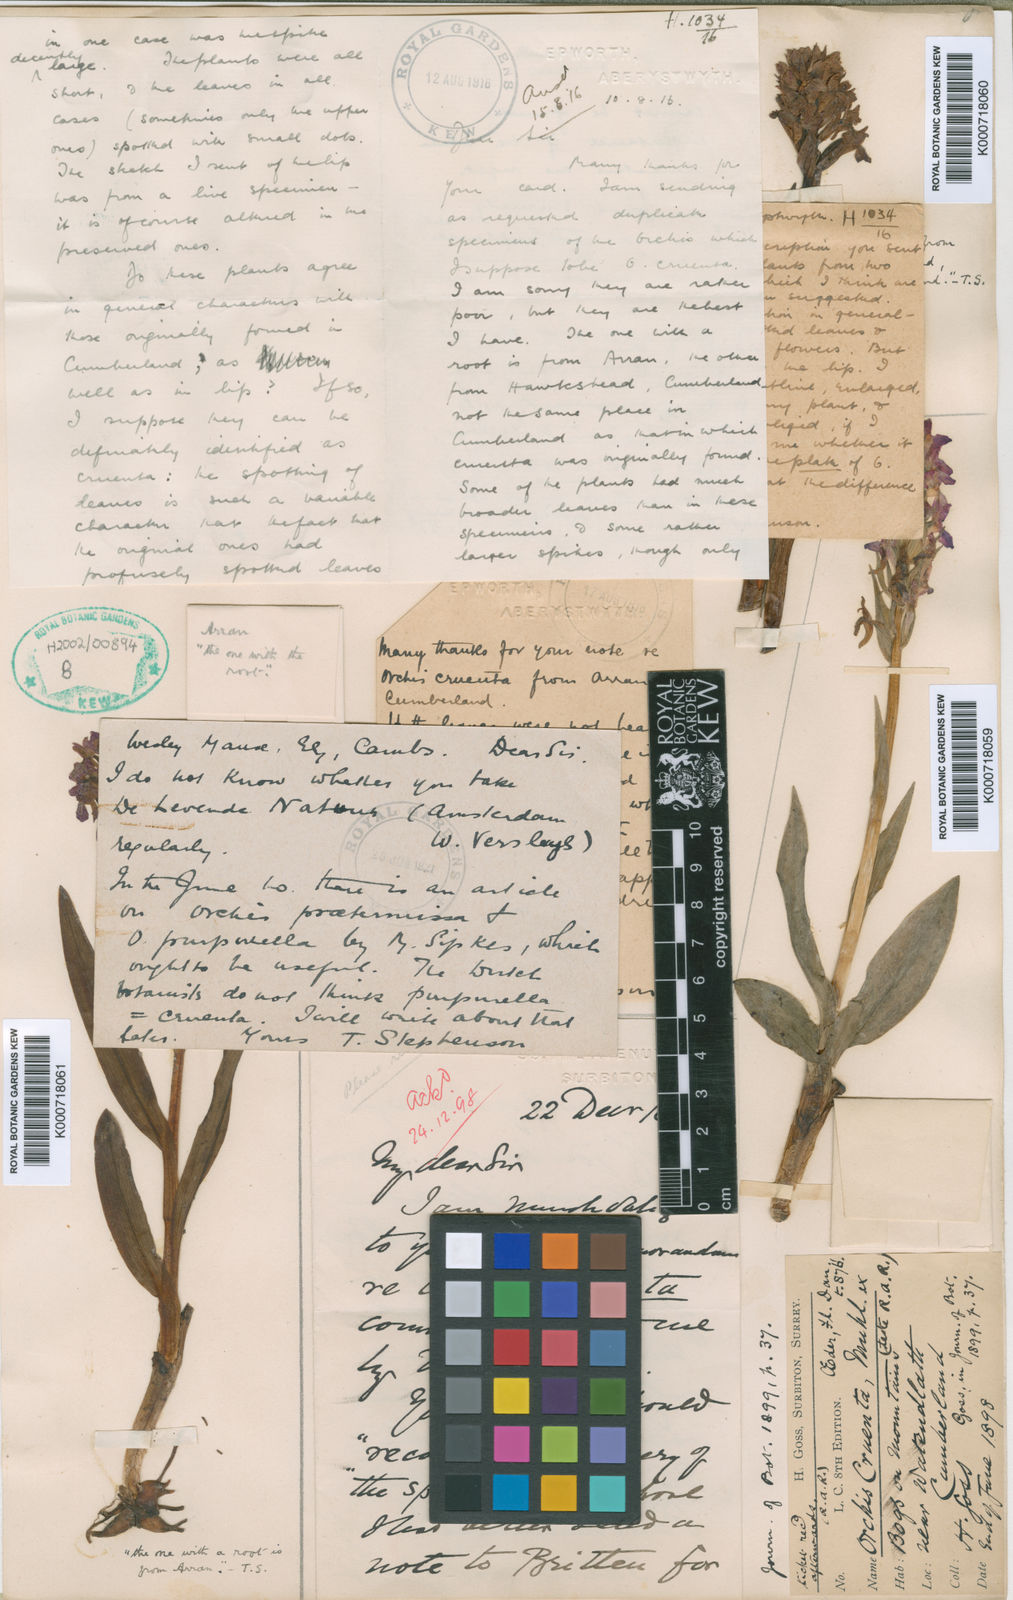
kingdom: Plantae
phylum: Tracheophyta
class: Liliopsida
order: Asparagales
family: Orchidaceae
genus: Dactylorhiza
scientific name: Dactylorhiza majalis
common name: Marsh orchid
